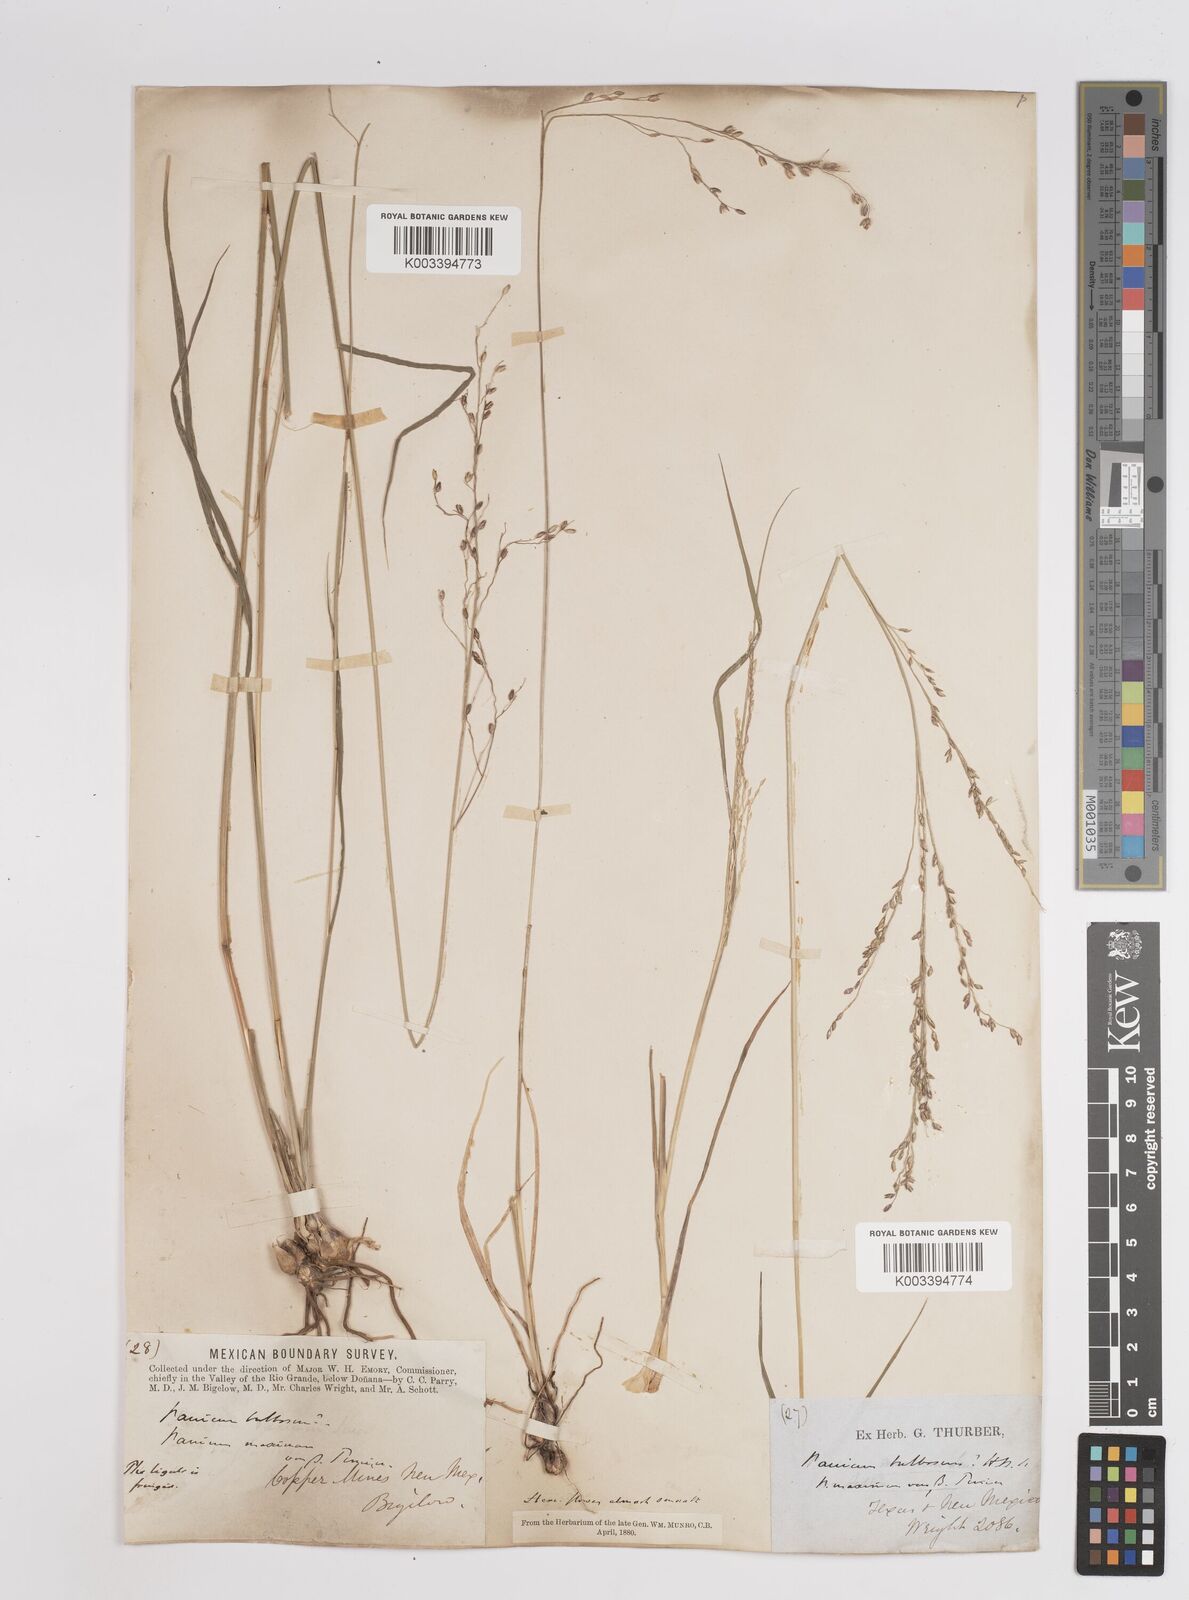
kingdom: Plantae
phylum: Tracheophyta
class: Liliopsida
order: Poales
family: Poaceae
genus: Zuloagaea
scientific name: Zuloagaea bulbosa
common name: Canyon panic grass
